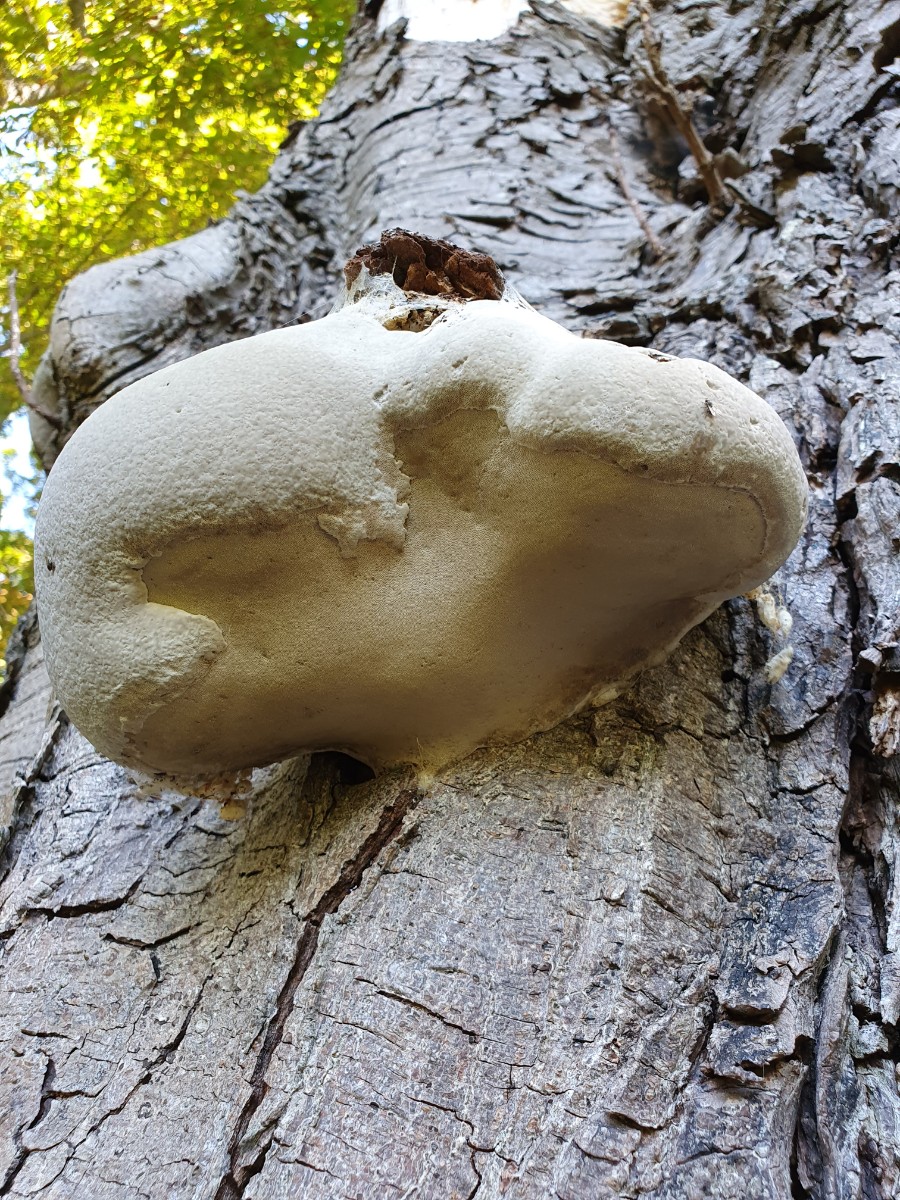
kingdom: Fungi
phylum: Basidiomycota
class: Agaricomycetes
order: Polyporales
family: Polyporaceae
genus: Fomes
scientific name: Fomes fomentarius
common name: tøndersvamp
